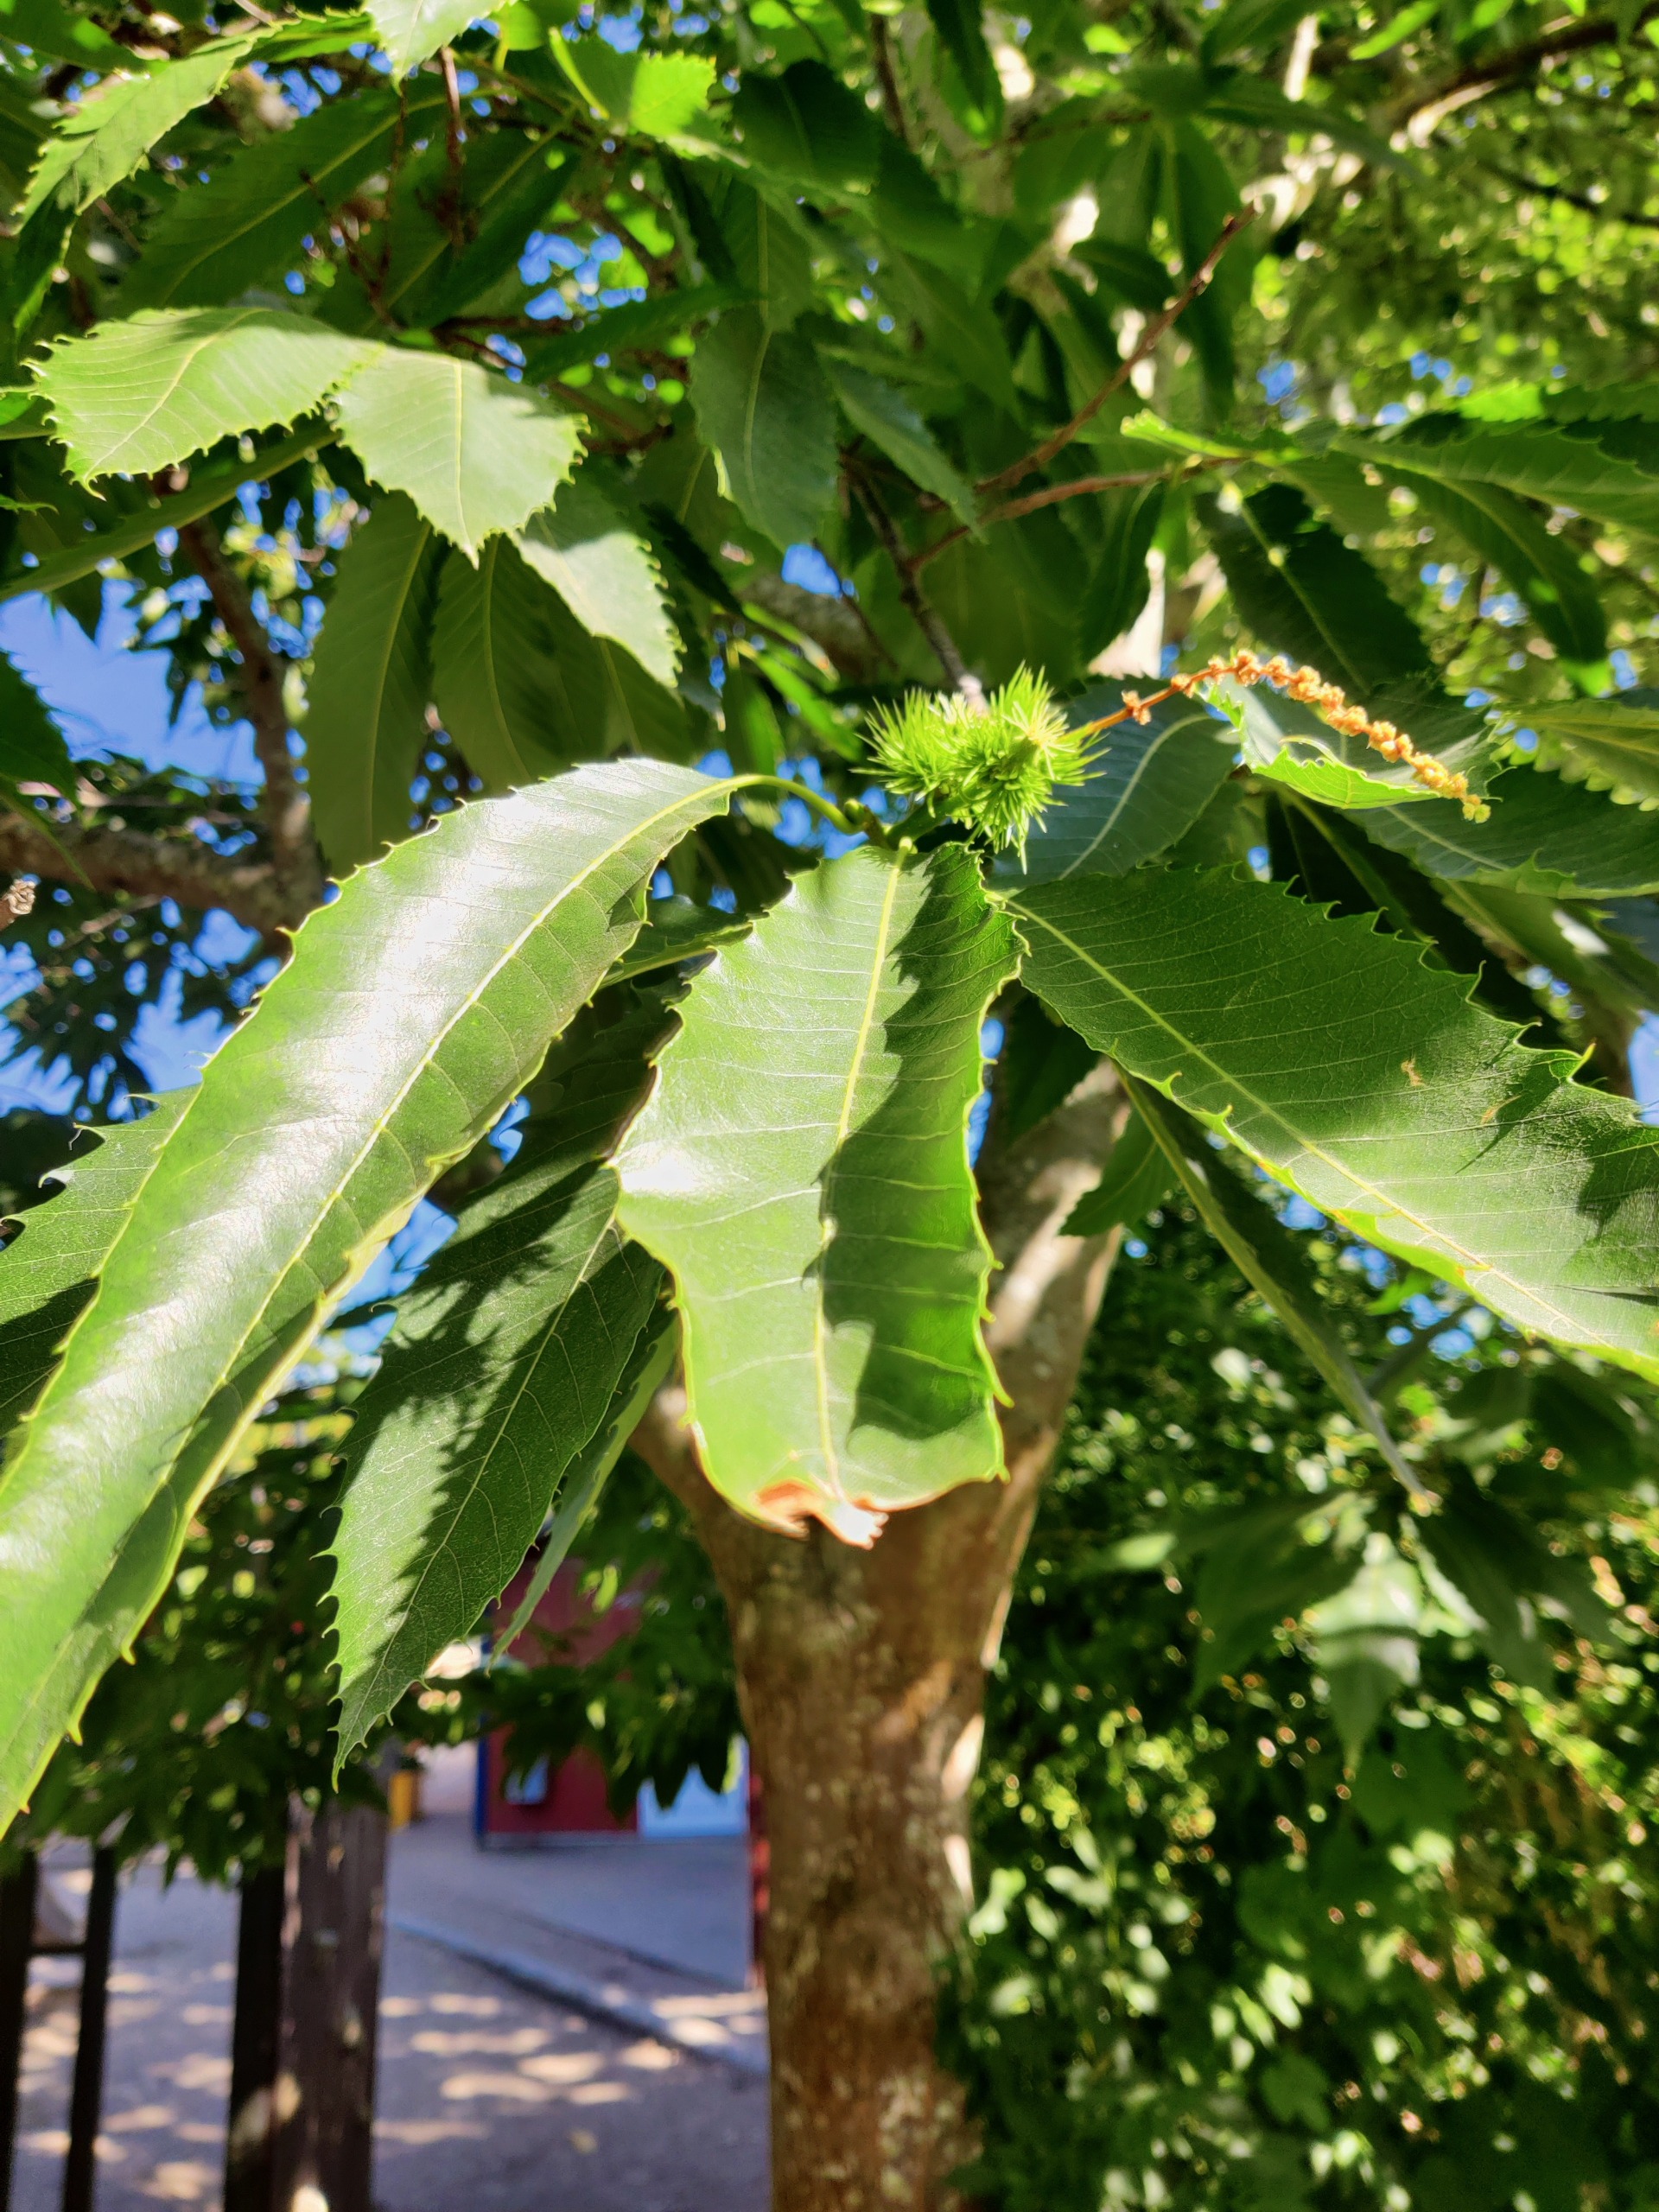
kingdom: Plantae
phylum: Tracheophyta
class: Magnoliopsida
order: Fagales
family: Fagaceae
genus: Castanea
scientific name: Castanea sativa
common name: Ægte kastanie
